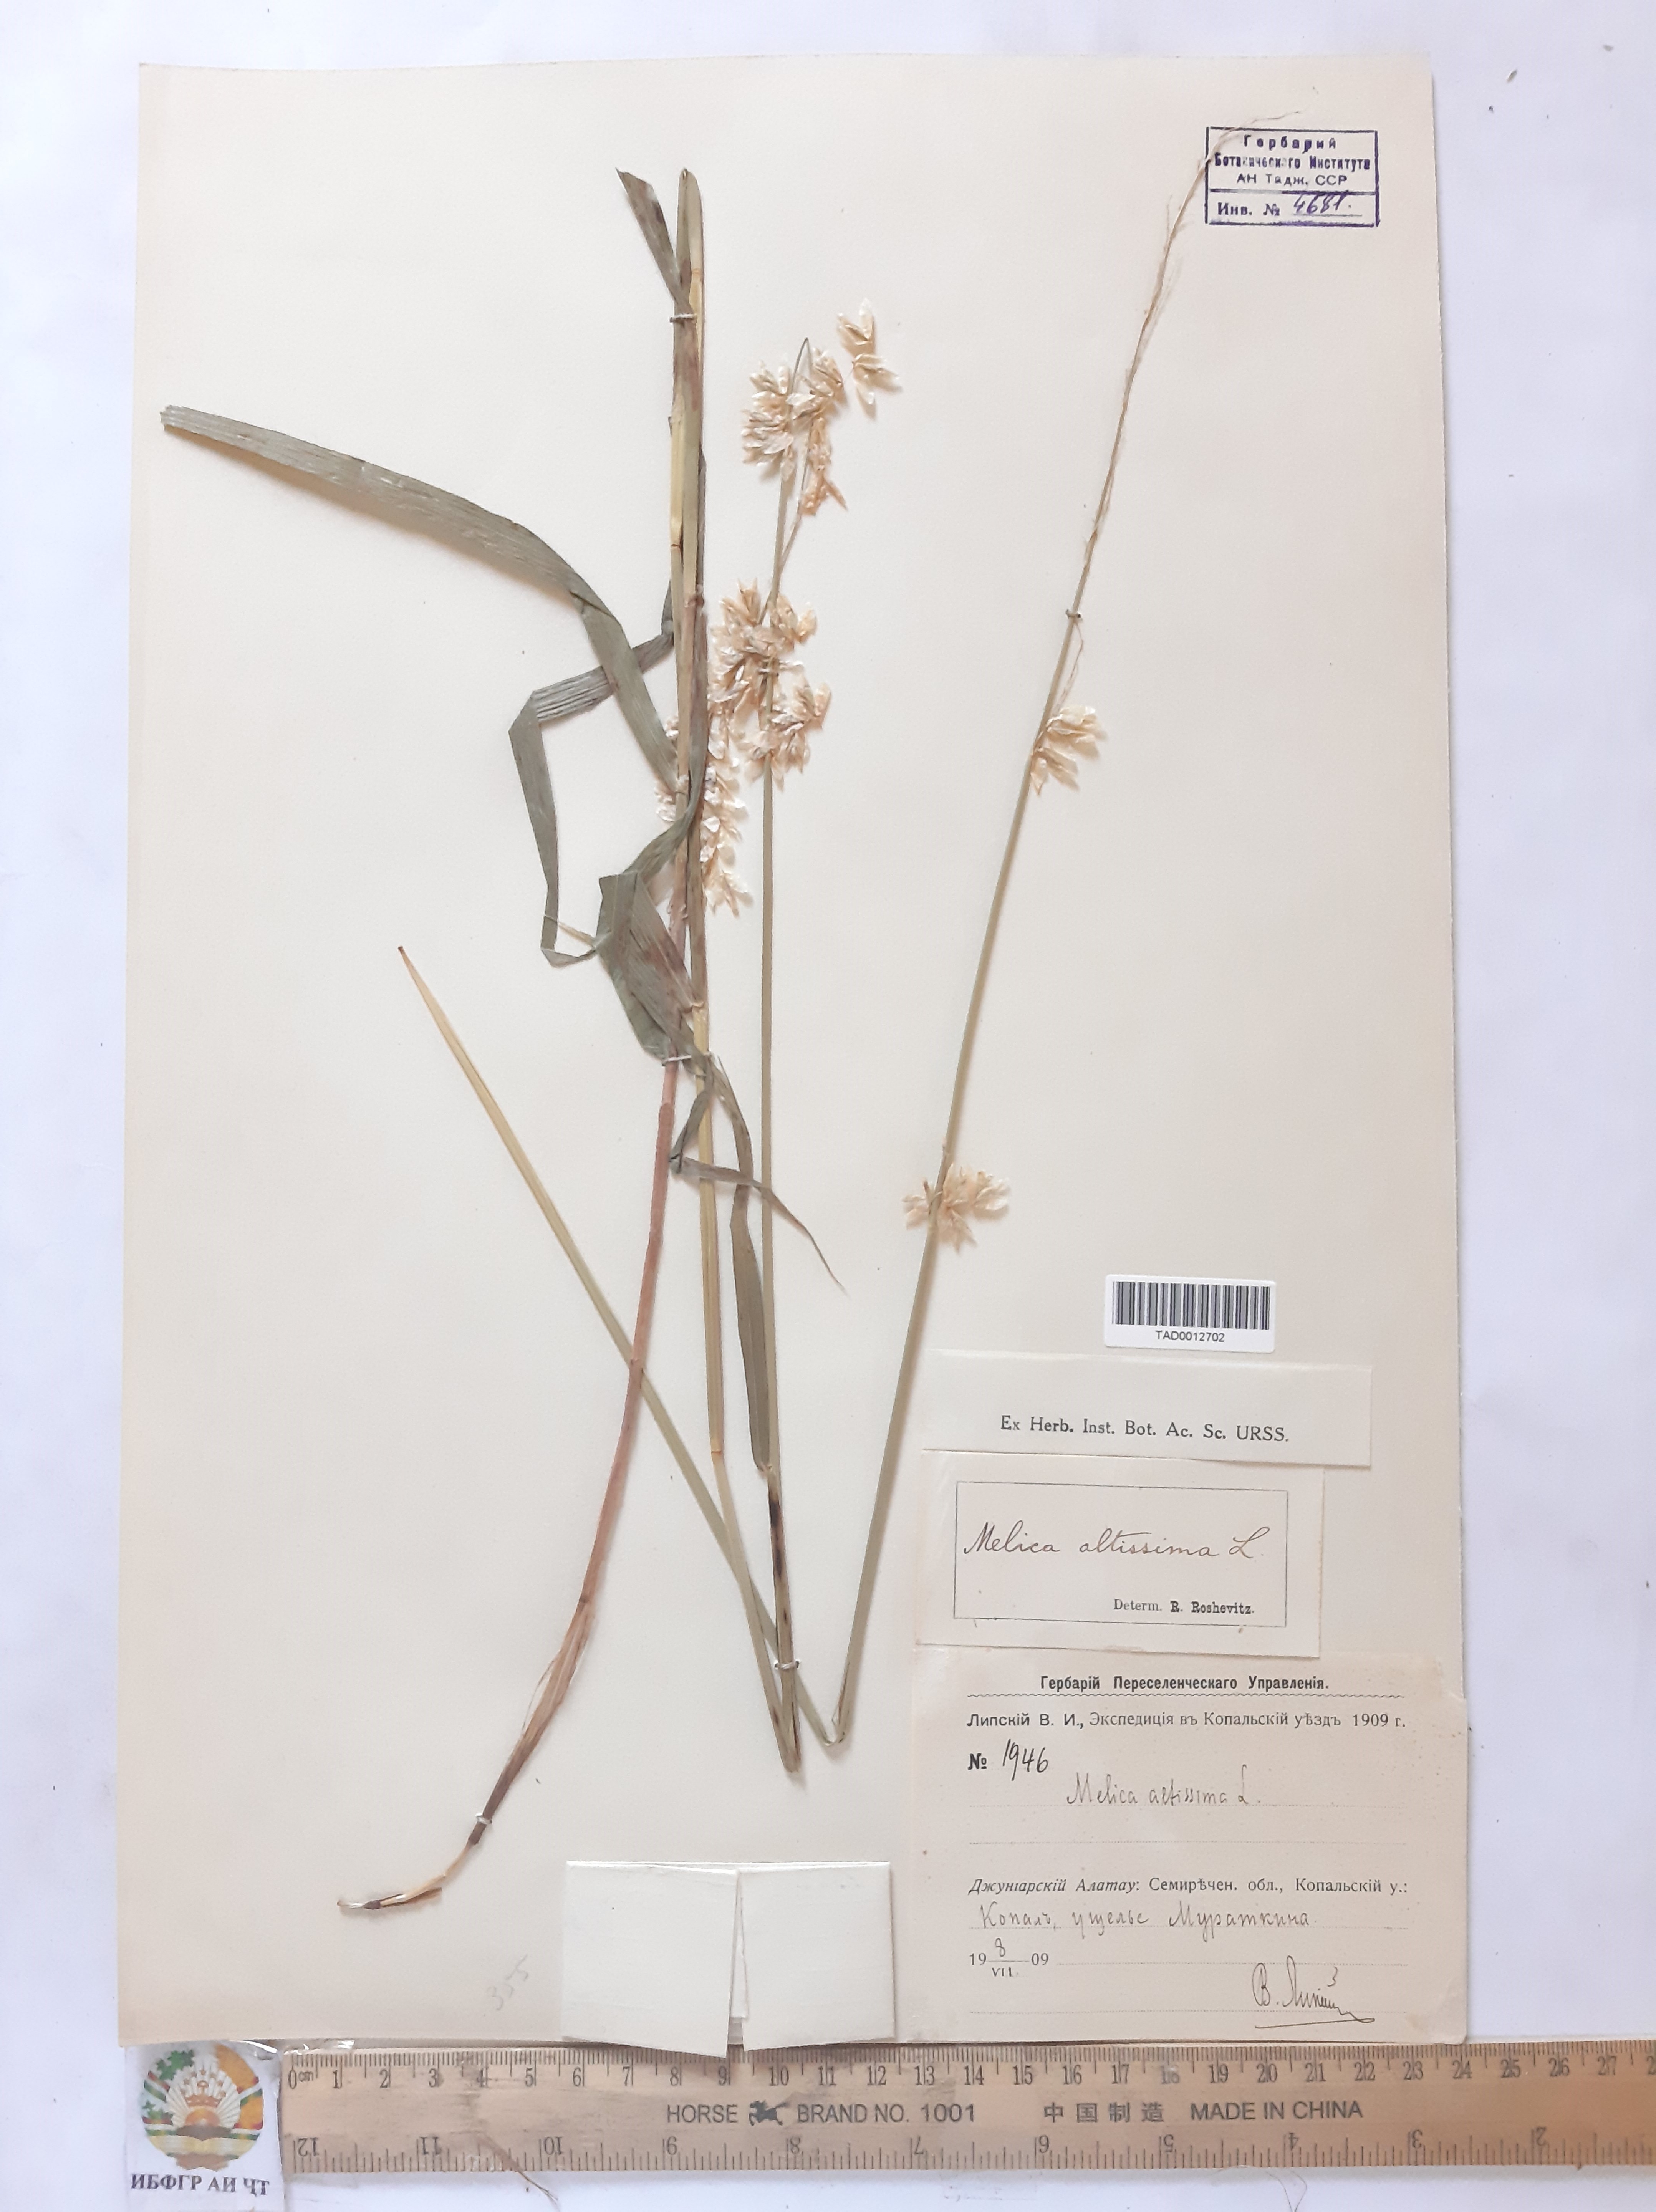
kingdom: Plantae
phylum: Tracheophyta
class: Liliopsida
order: Poales
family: Poaceae
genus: Melica
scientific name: Melica altissima
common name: Siberian melicgrass
